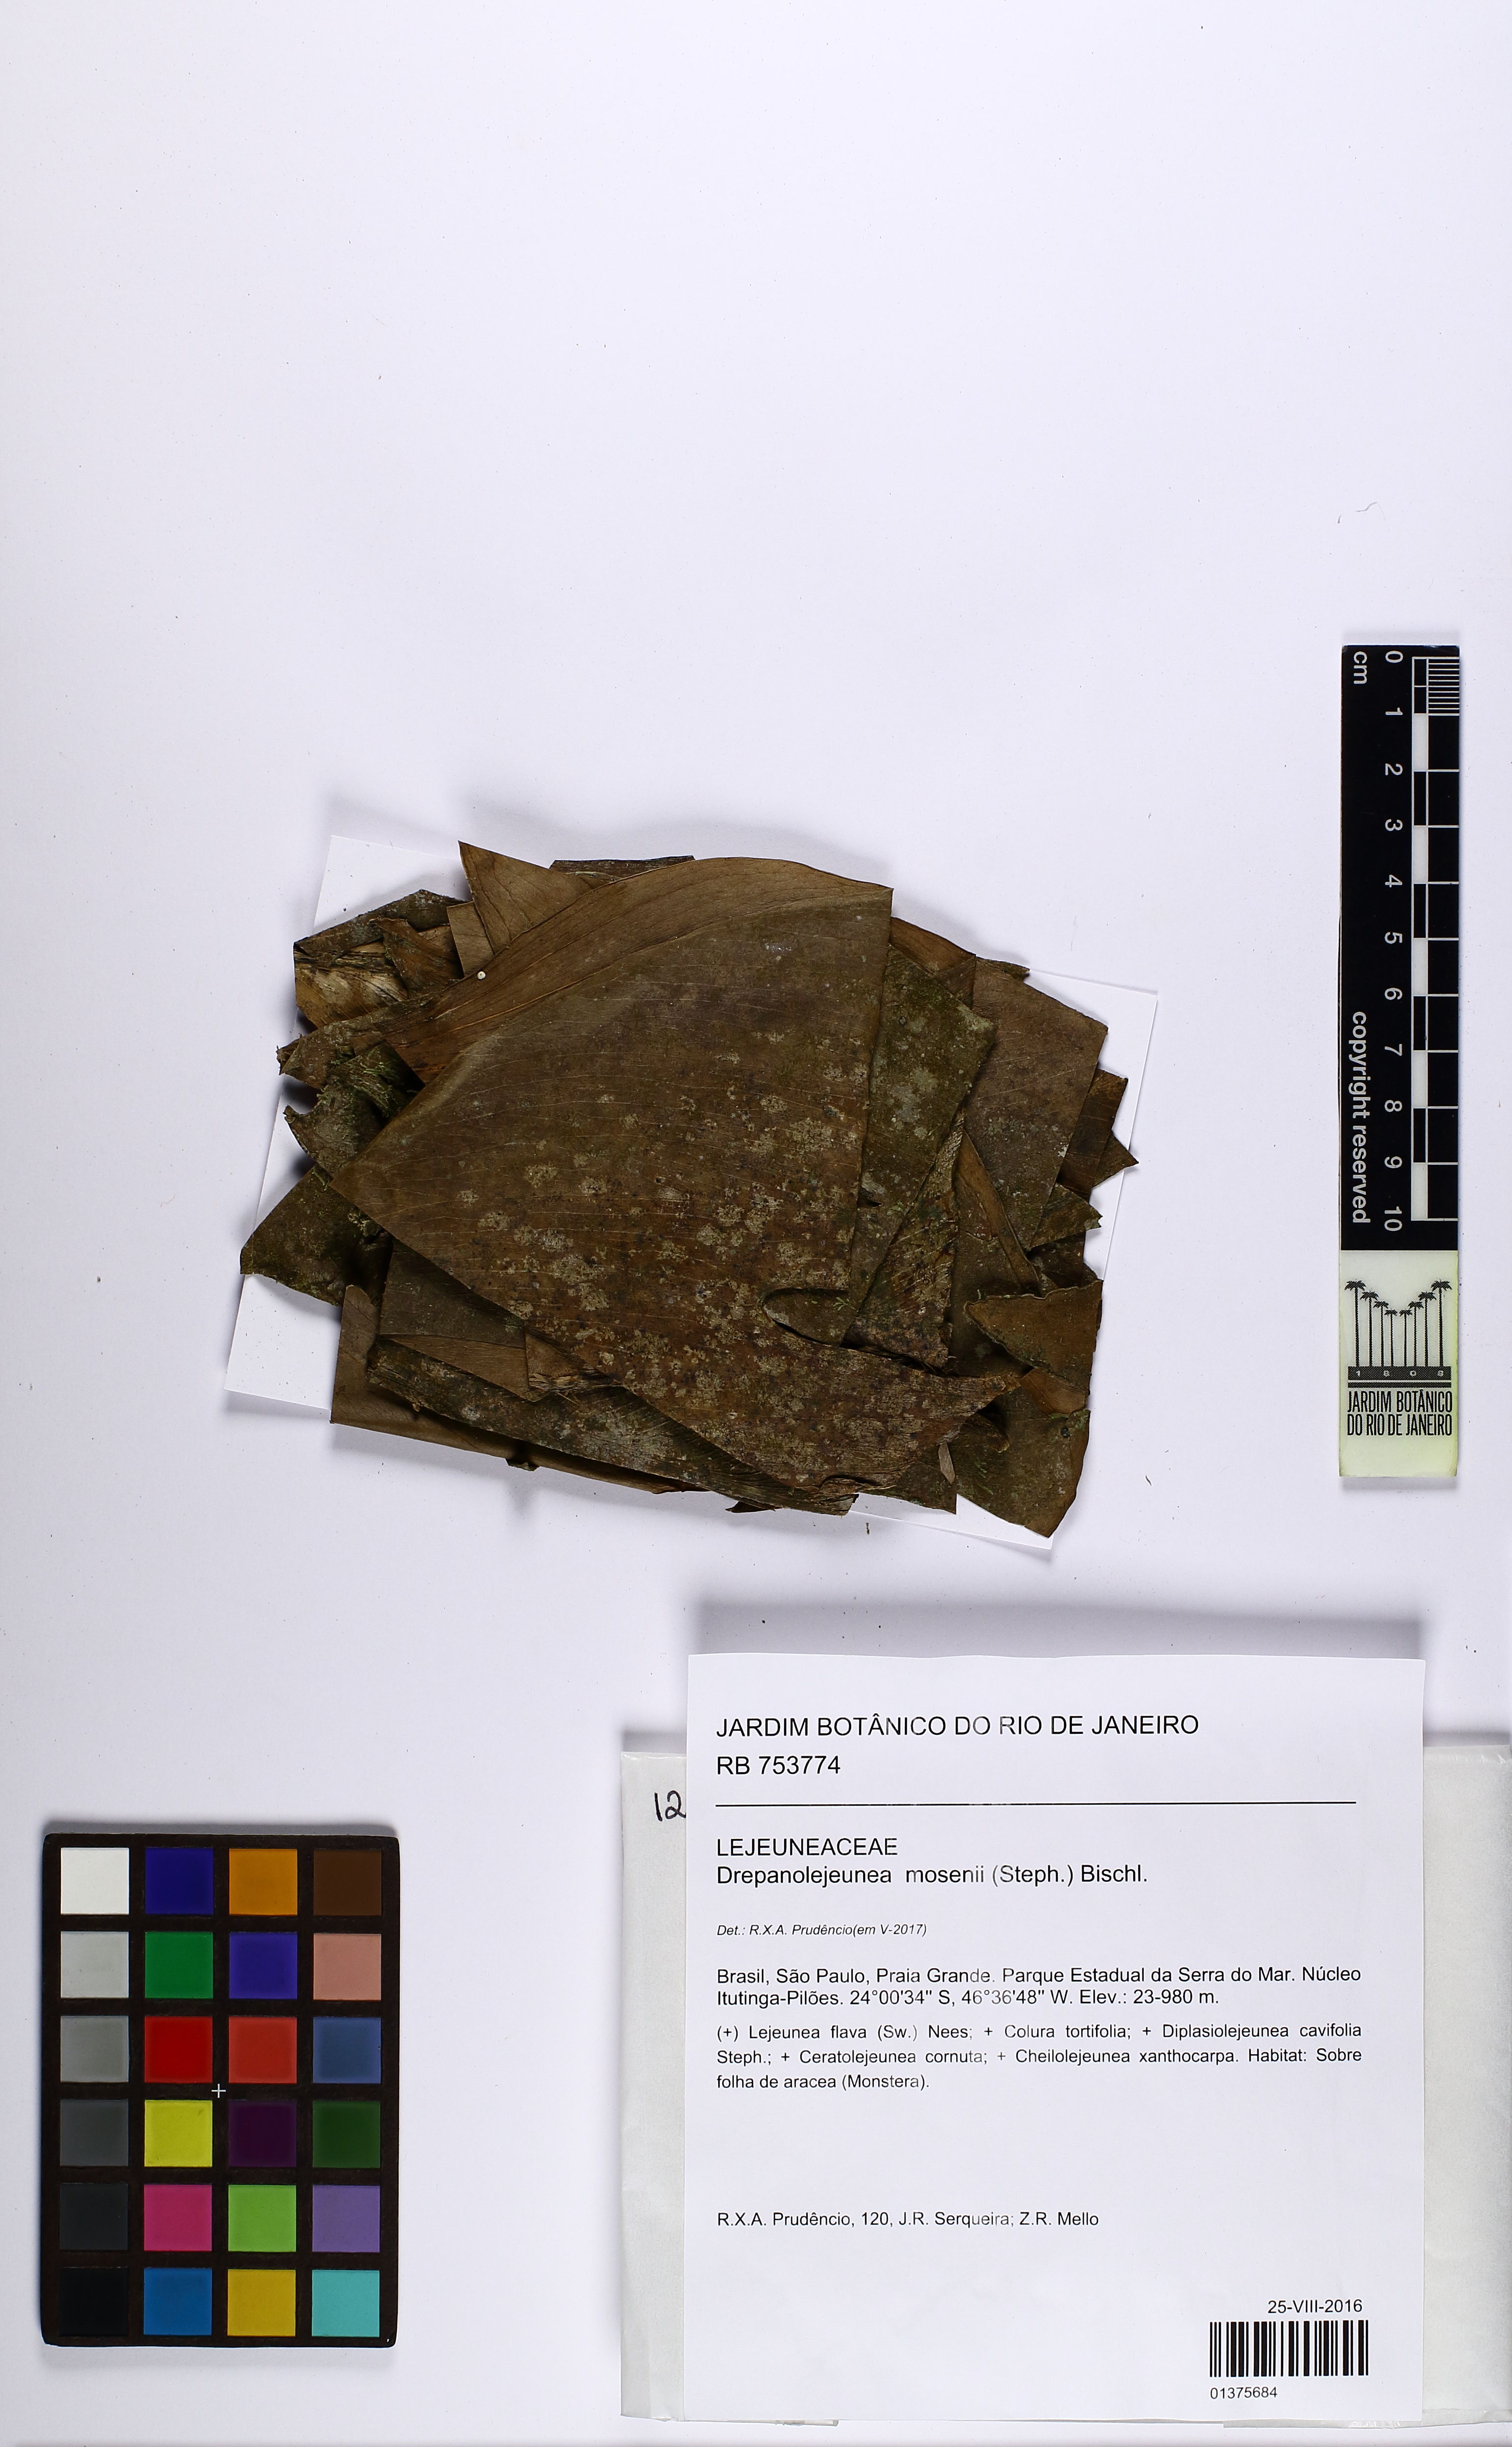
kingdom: Plantae
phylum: Marchantiophyta
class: Jungermanniopsida
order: Porellales
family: Lejeuneaceae
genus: Drepanolejeunea
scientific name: Drepanolejeunea mosenii
